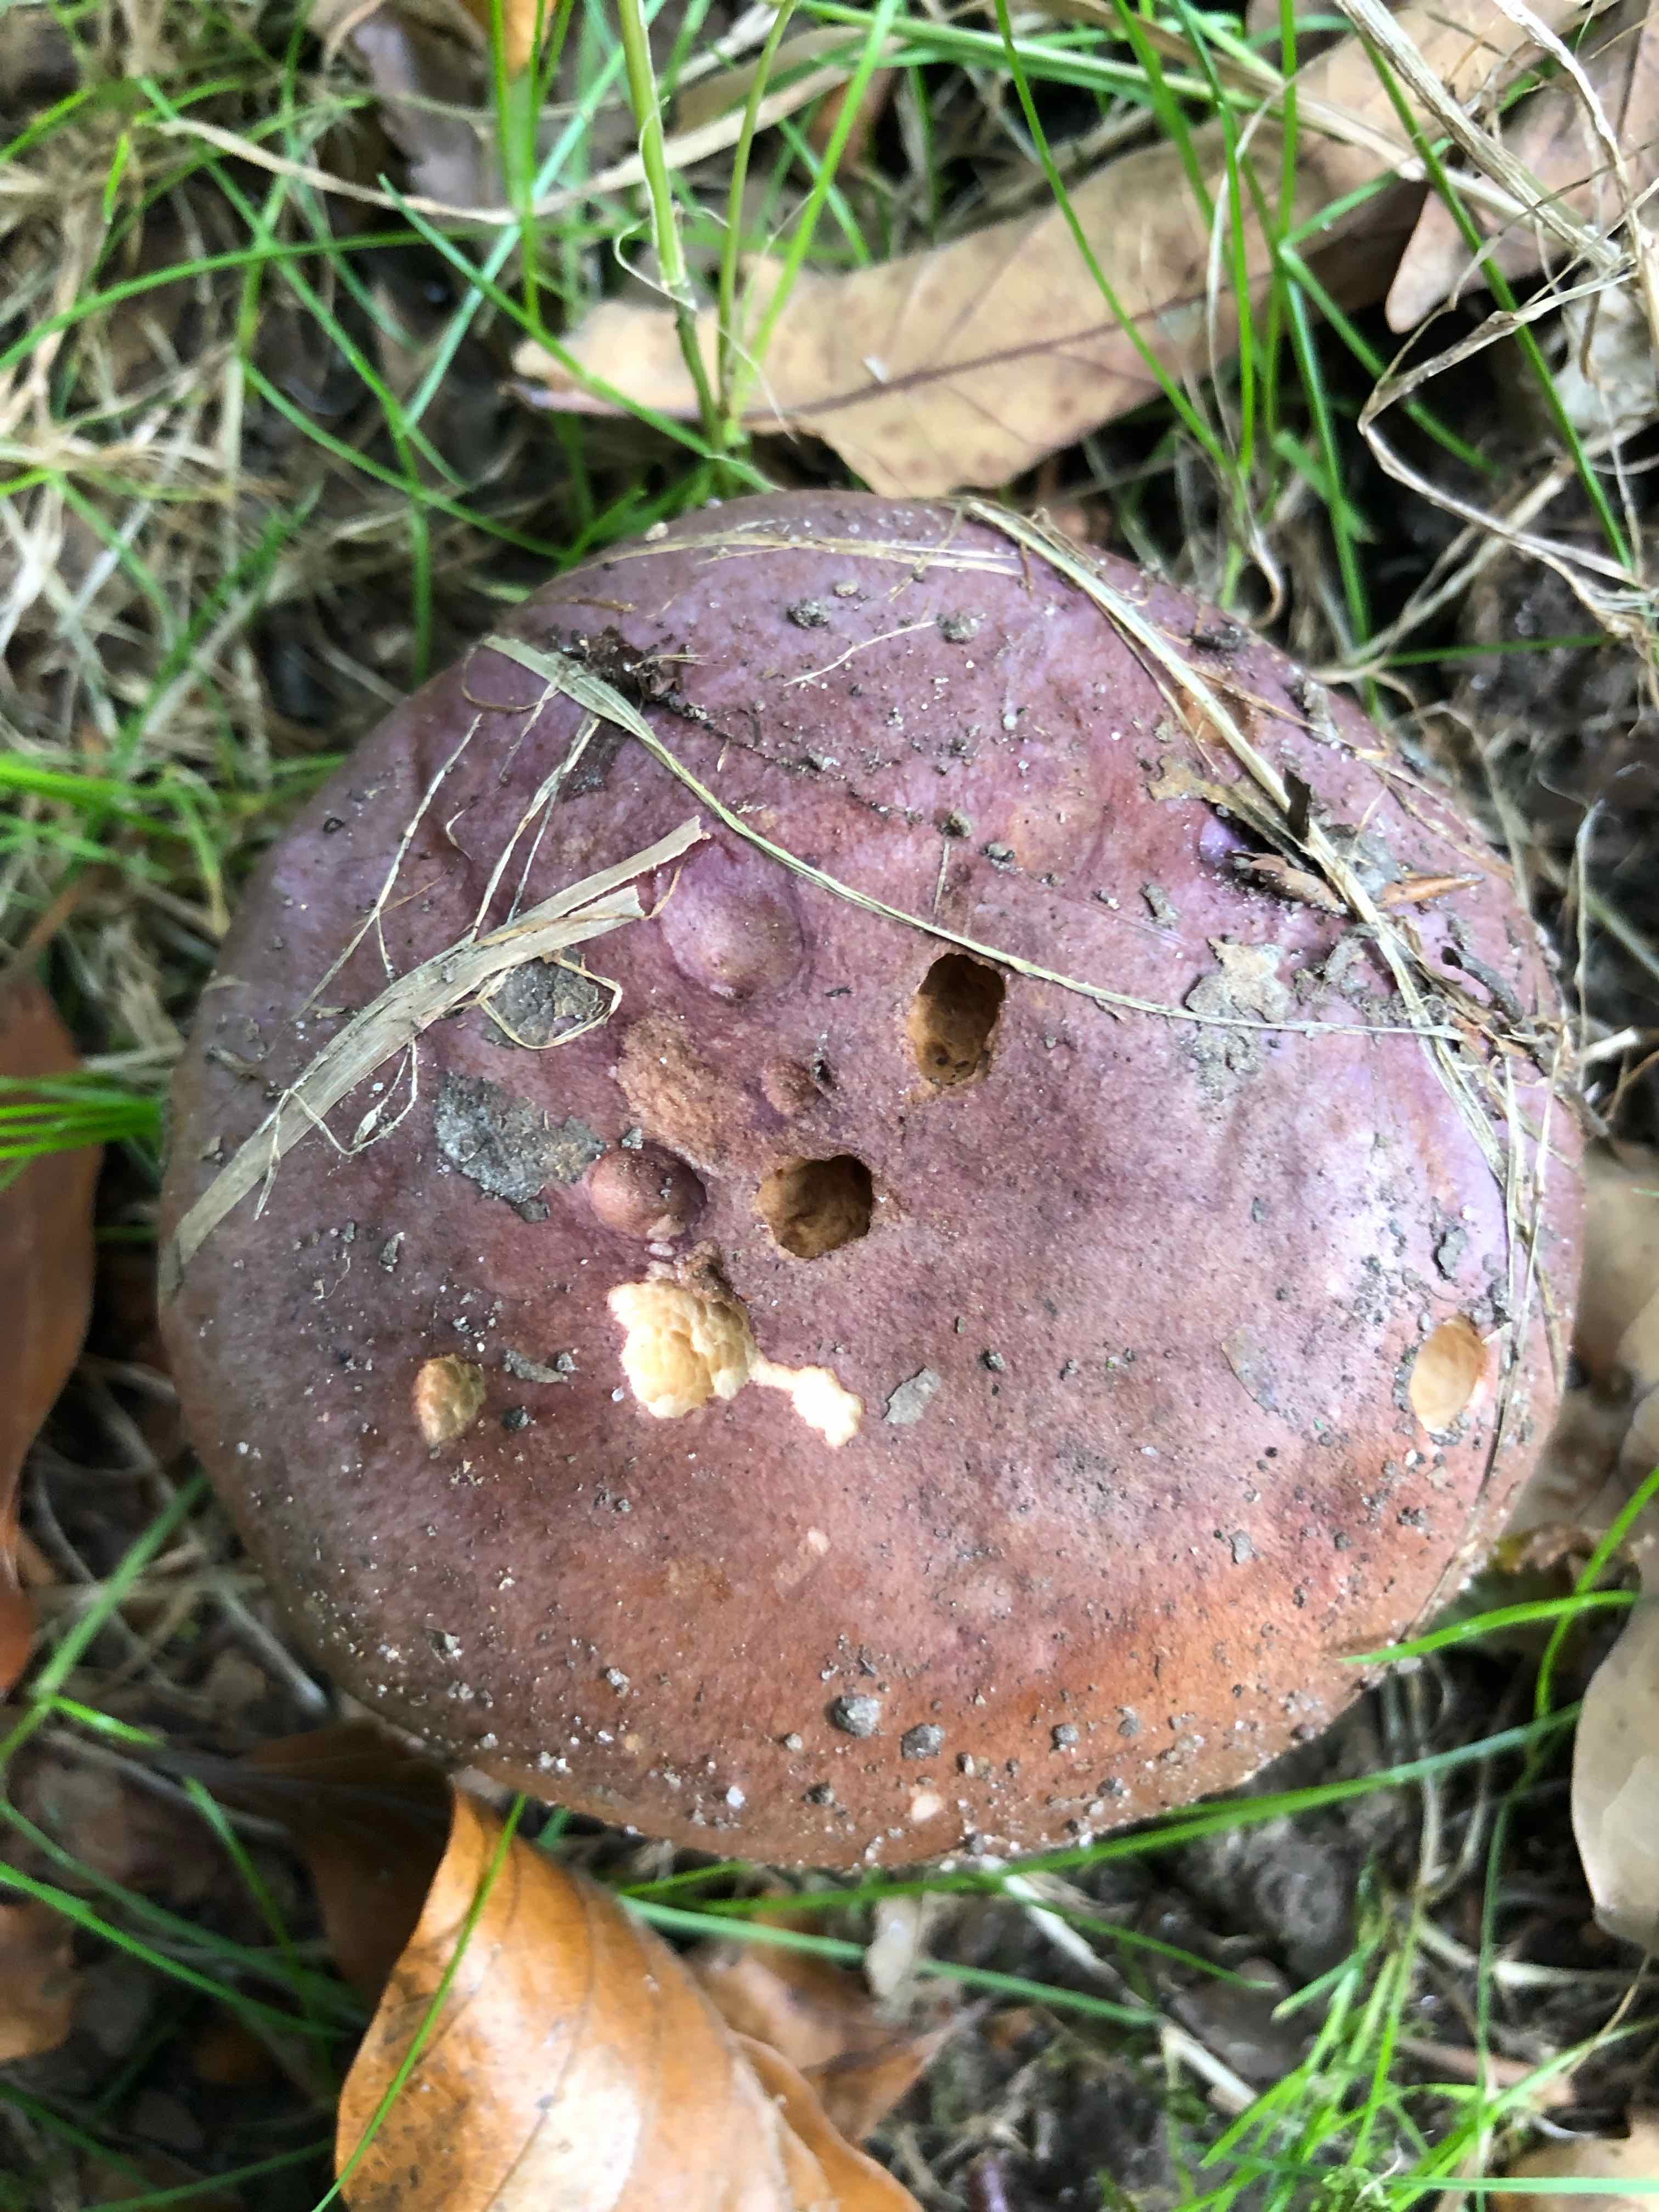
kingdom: Fungi
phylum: Basidiomycota
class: Agaricomycetes
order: Agaricales
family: Cortinariaceae
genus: Phlegmacium
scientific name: Phlegmacium balteatocumatile
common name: violettrådet slørhat
